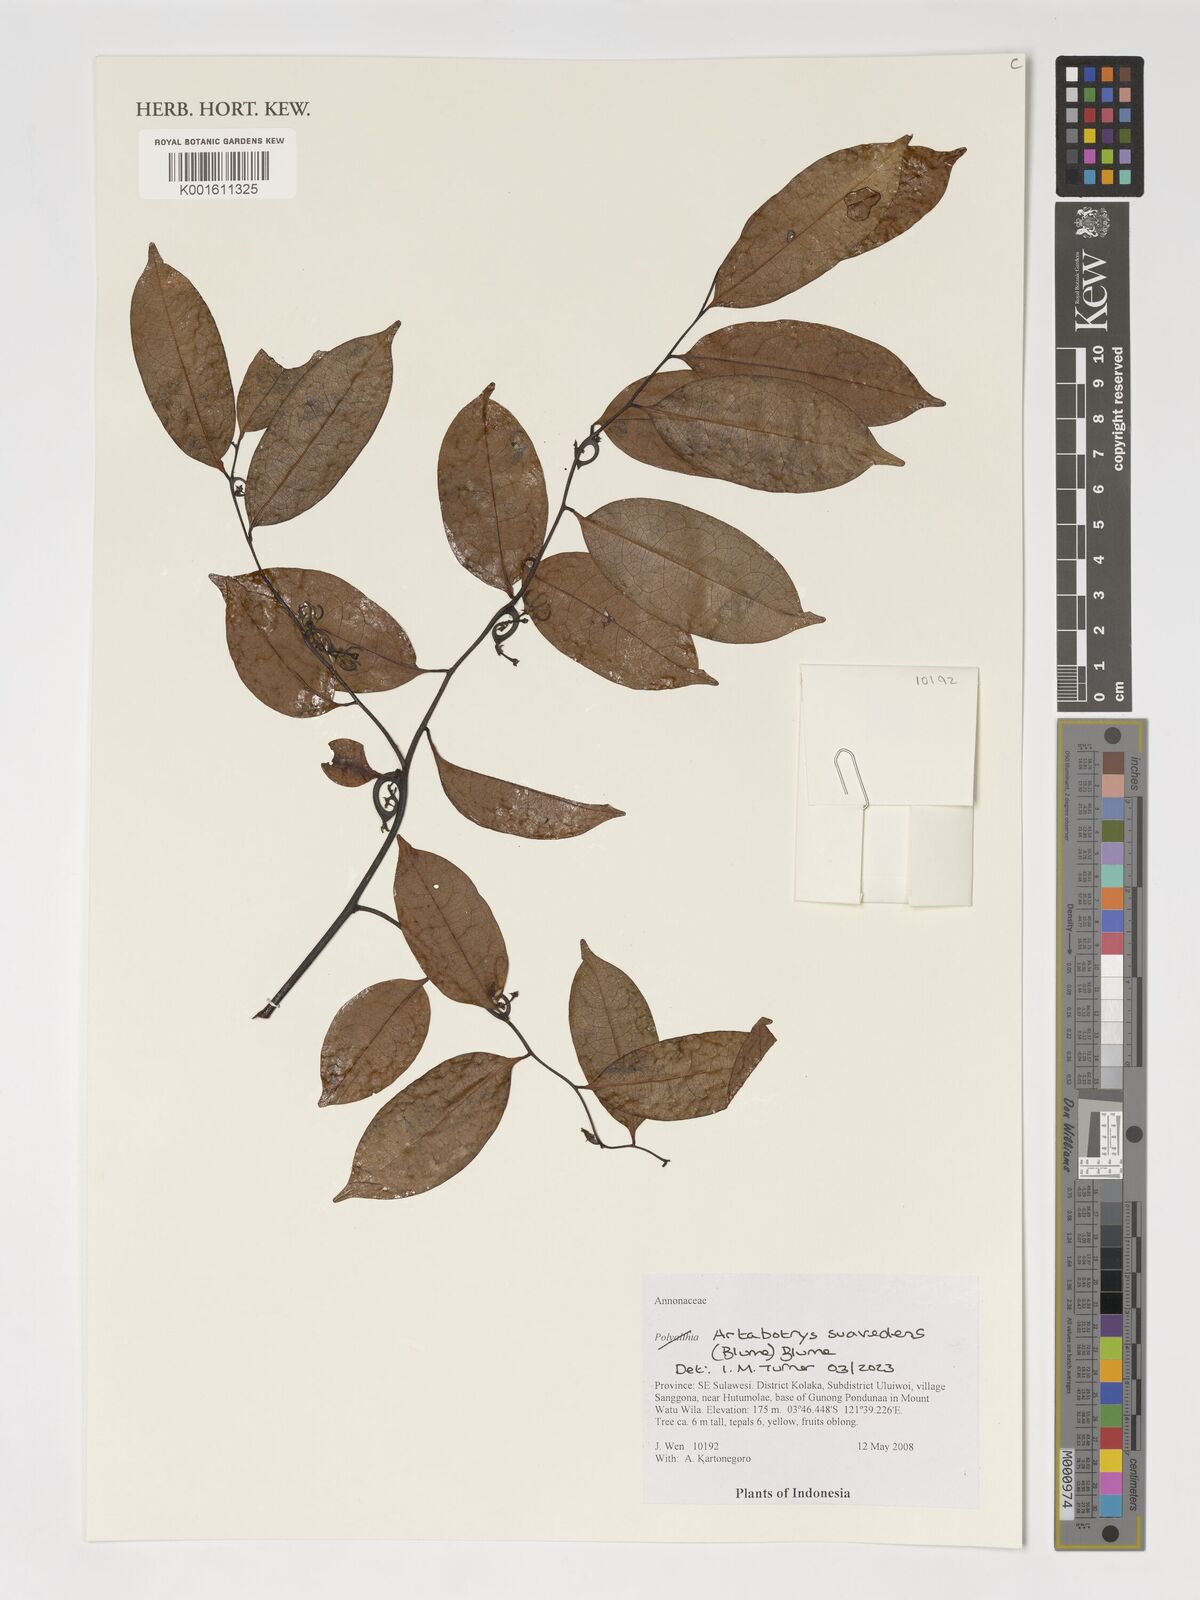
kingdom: Plantae
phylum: Tracheophyta
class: Magnoliopsida
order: Magnoliales
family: Annonaceae
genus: Artabotrys
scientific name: Artabotrys suaveolens
